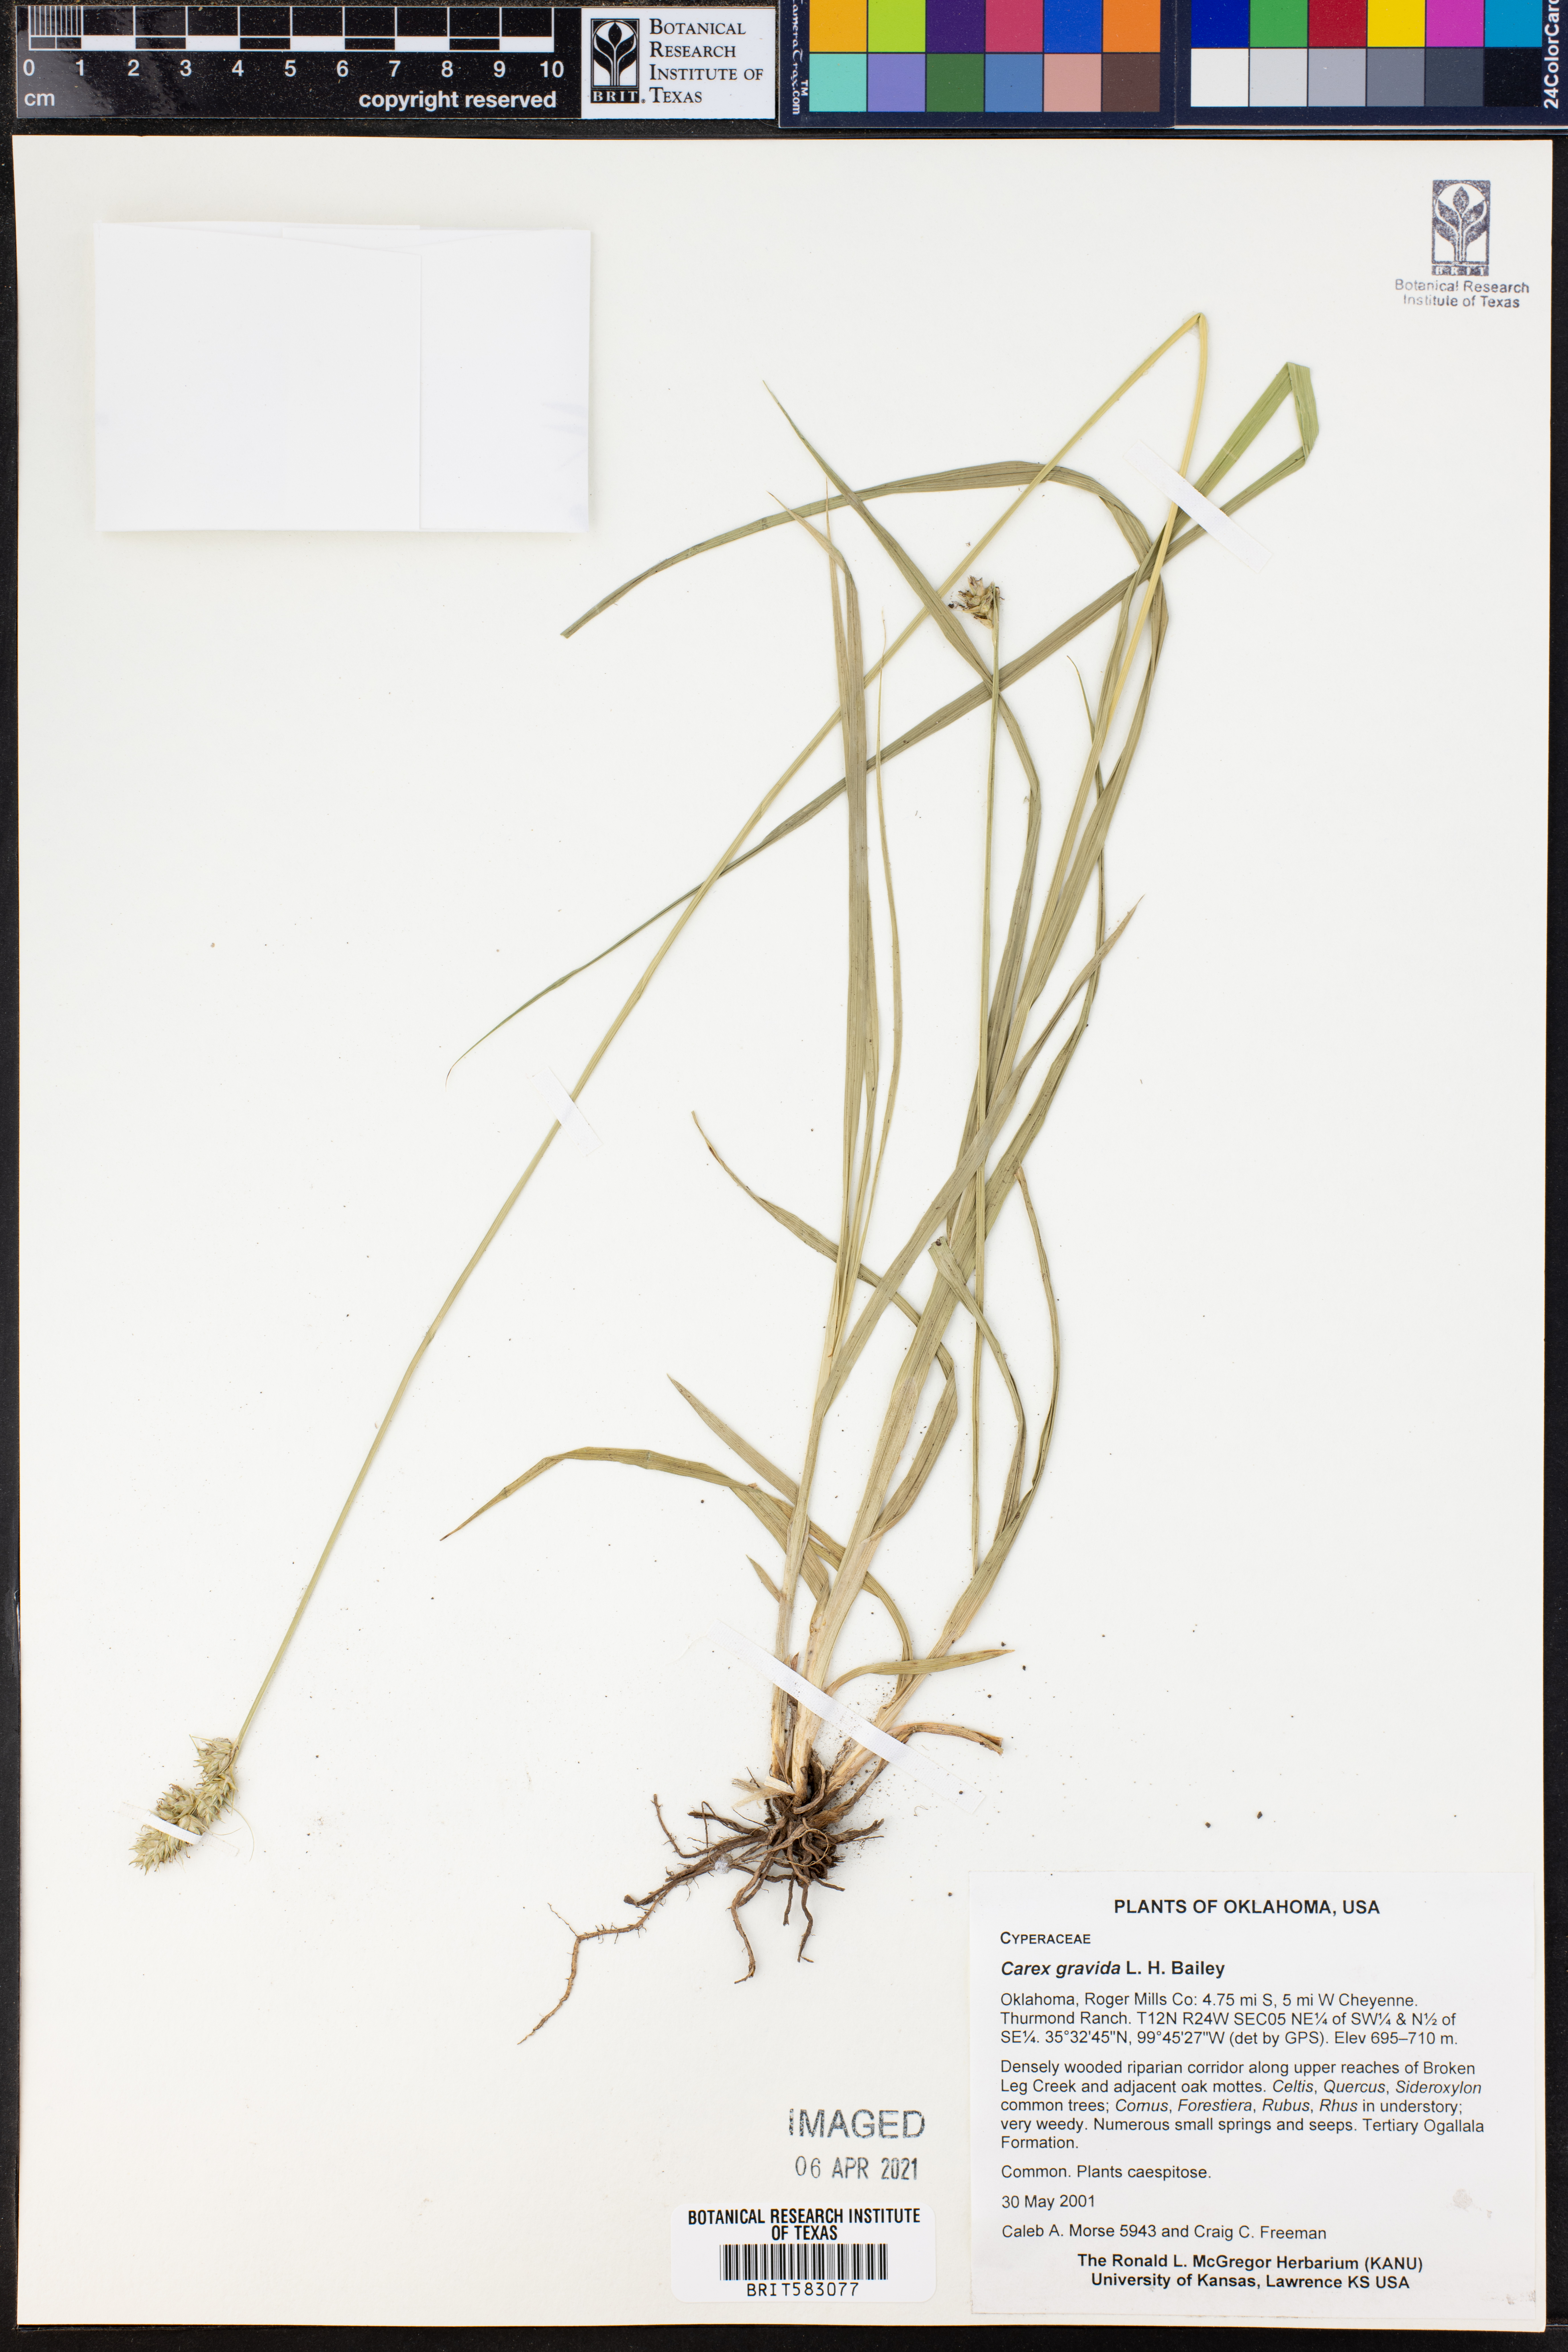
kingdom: Plantae
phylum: Tracheophyta
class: Liliopsida
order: Poales
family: Cyperaceae
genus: Carex
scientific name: Carex gravida
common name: Heavy sedge
